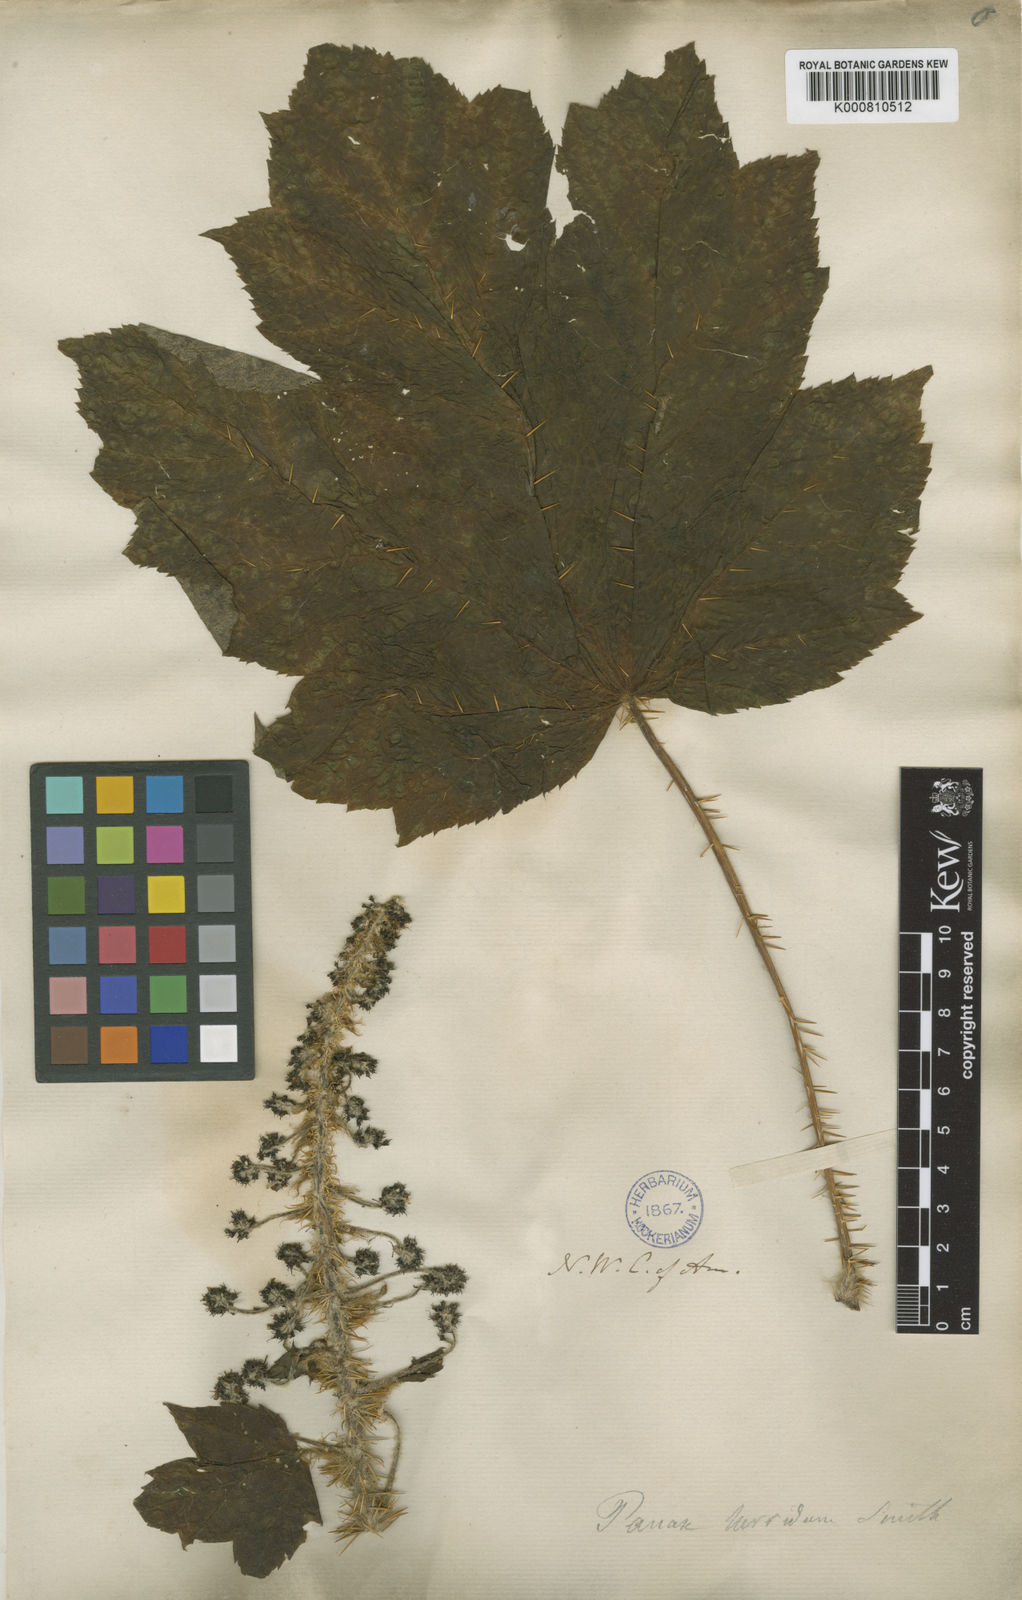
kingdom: Plantae
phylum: Tracheophyta
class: Magnoliopsida
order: Apiales
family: Araliaceae
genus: Oplopanax
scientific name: Oplopanax horridus
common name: Devil's walking-stick
